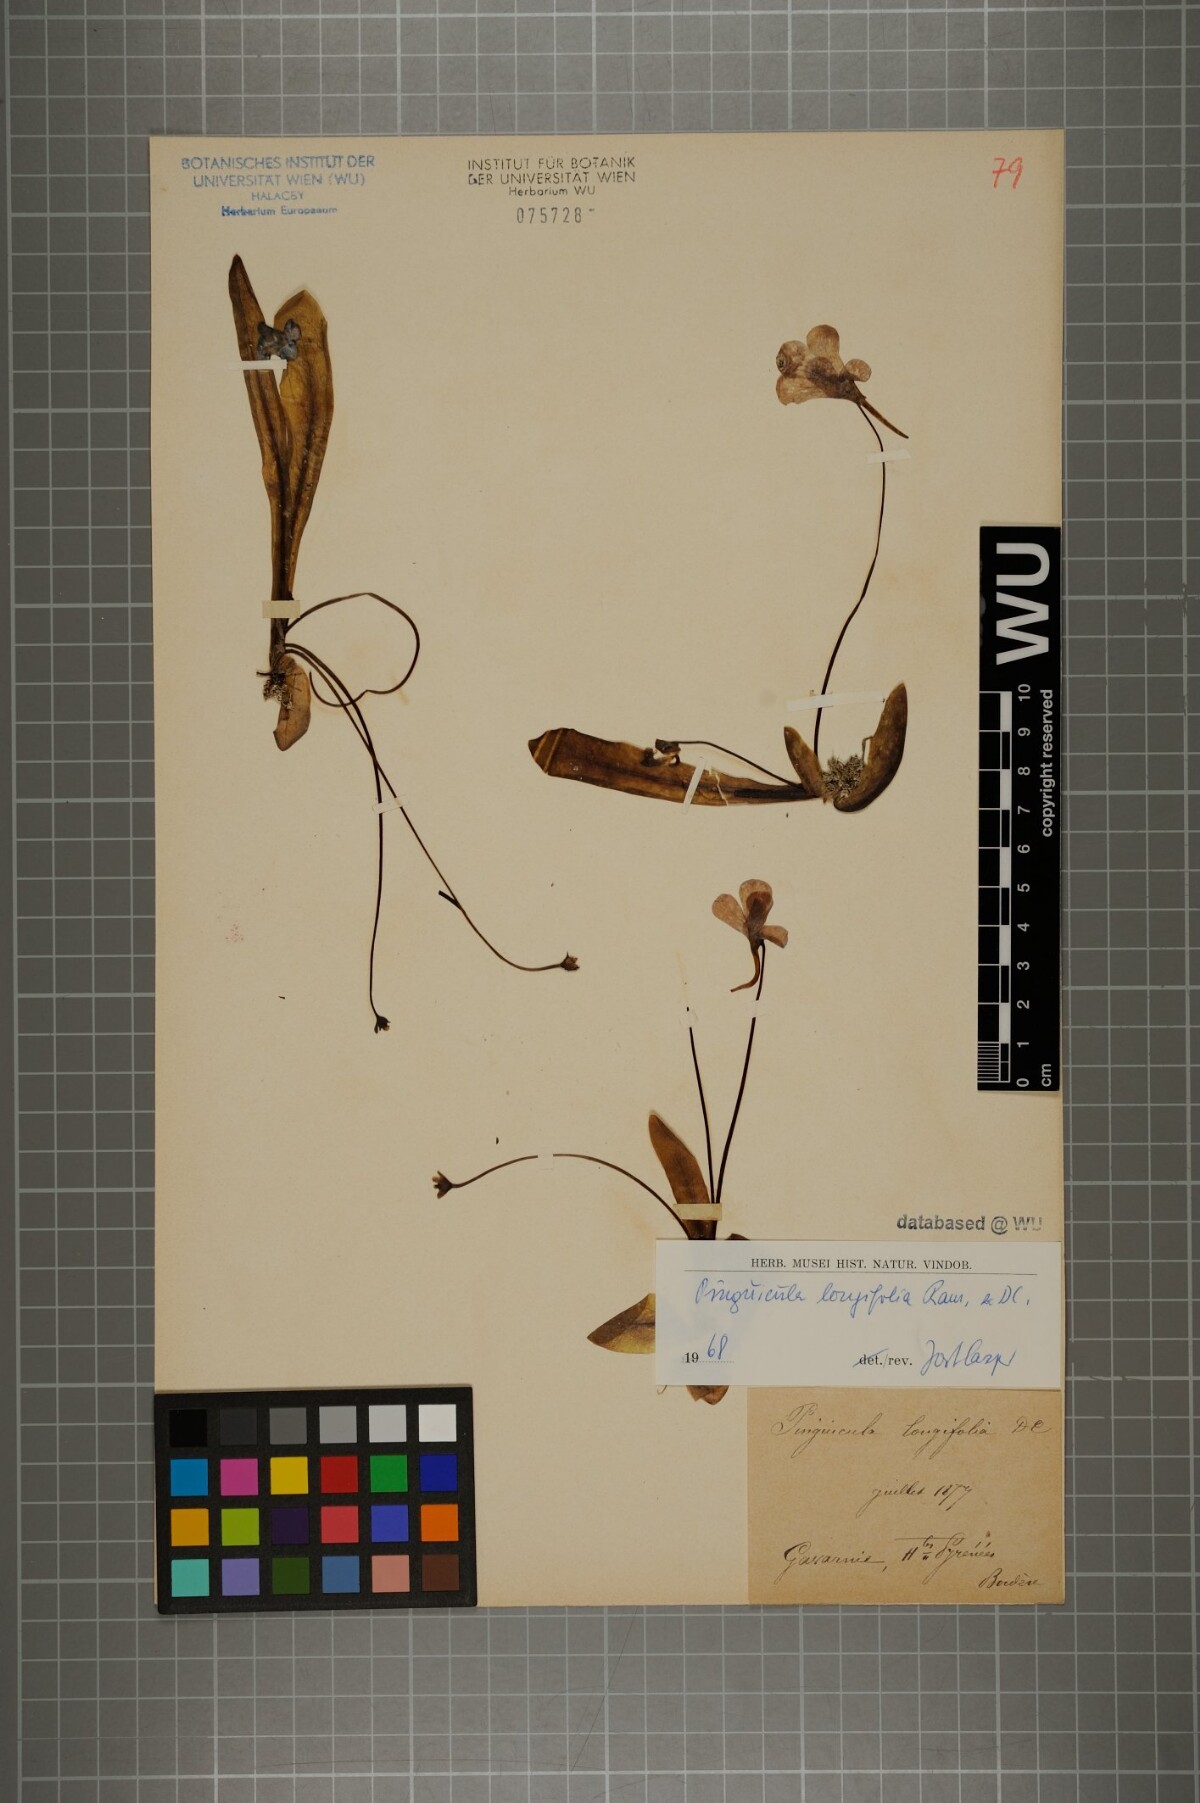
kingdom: Plantae
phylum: Tracheophyta
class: Magnoliopsida
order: Lamiales
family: Lentibulariaceae
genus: Pinguicula
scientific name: Pinguicula longifolia
